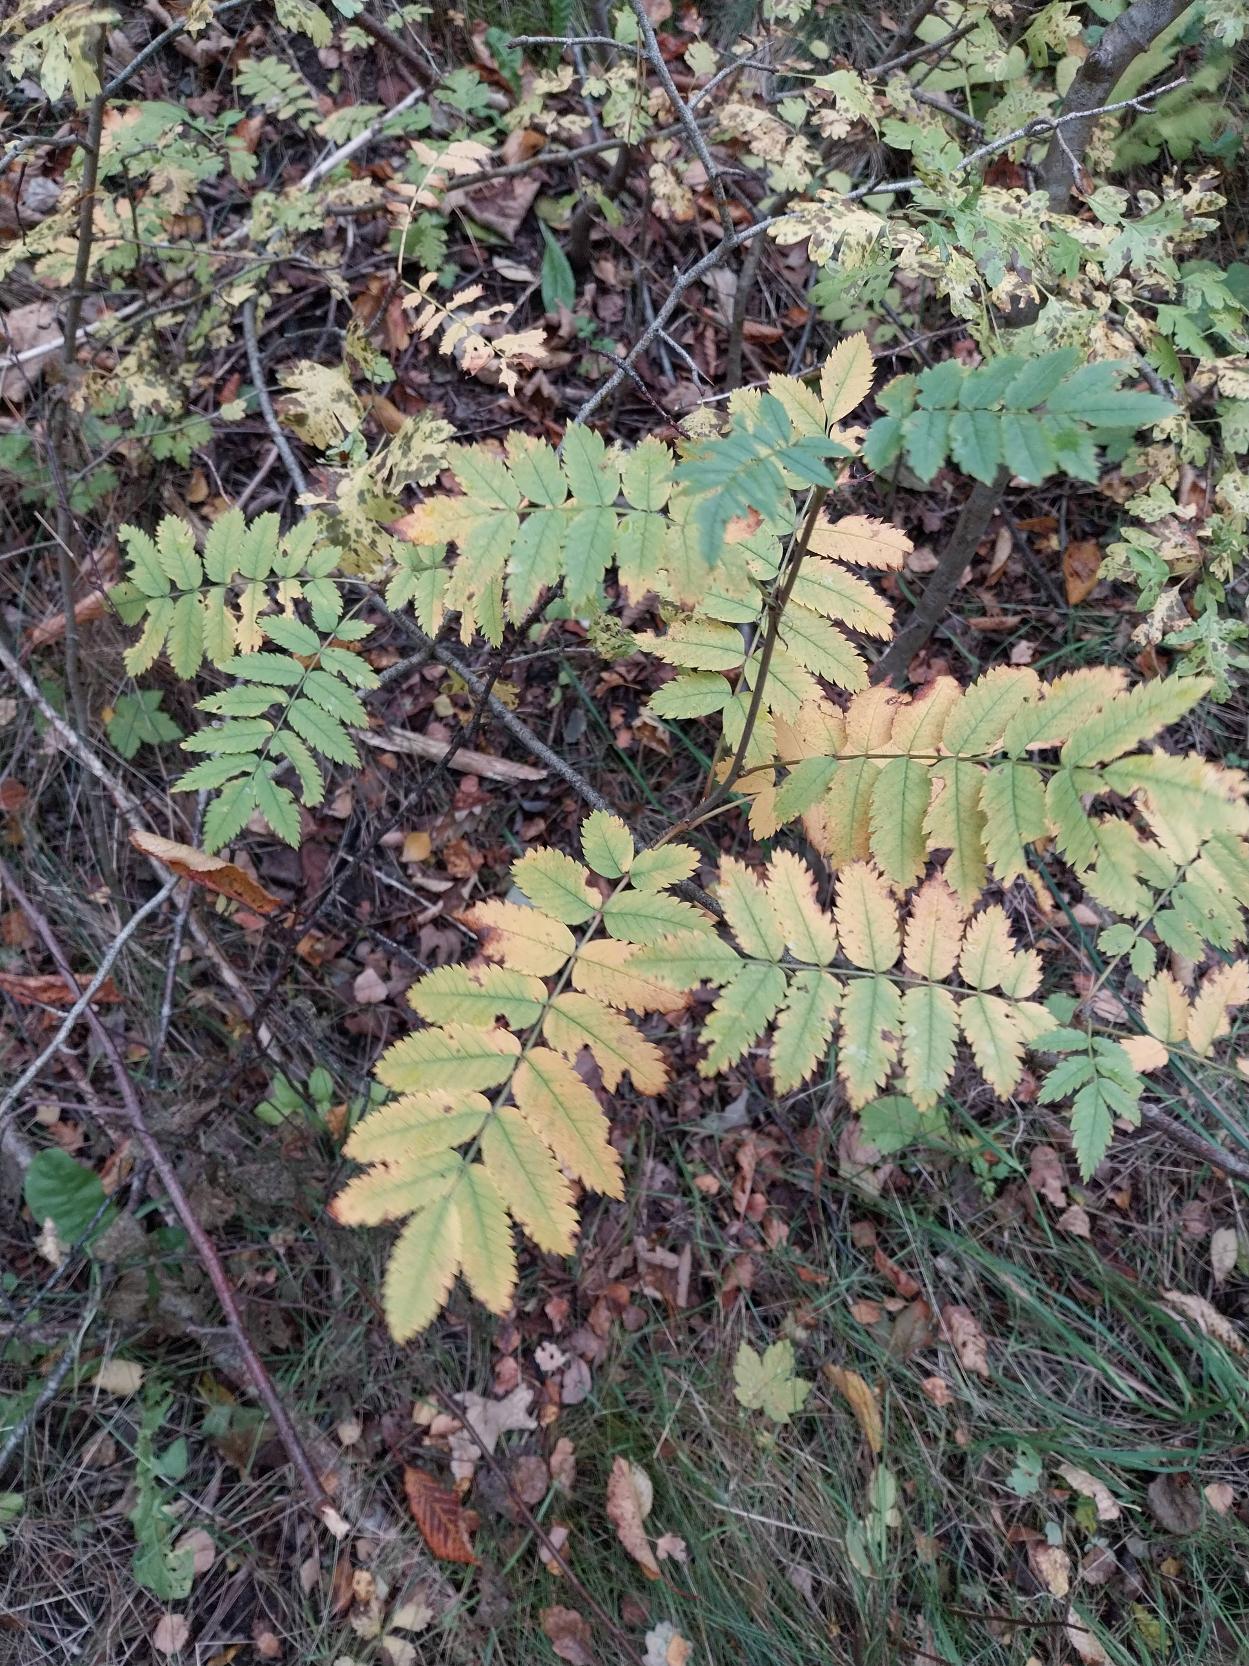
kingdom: Plantae
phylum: Tracheophyta
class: Magnoliopsida
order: Rosales
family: Rosaceae
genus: Sorbus
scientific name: Sorbus aucuparia
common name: Almindelig røn
